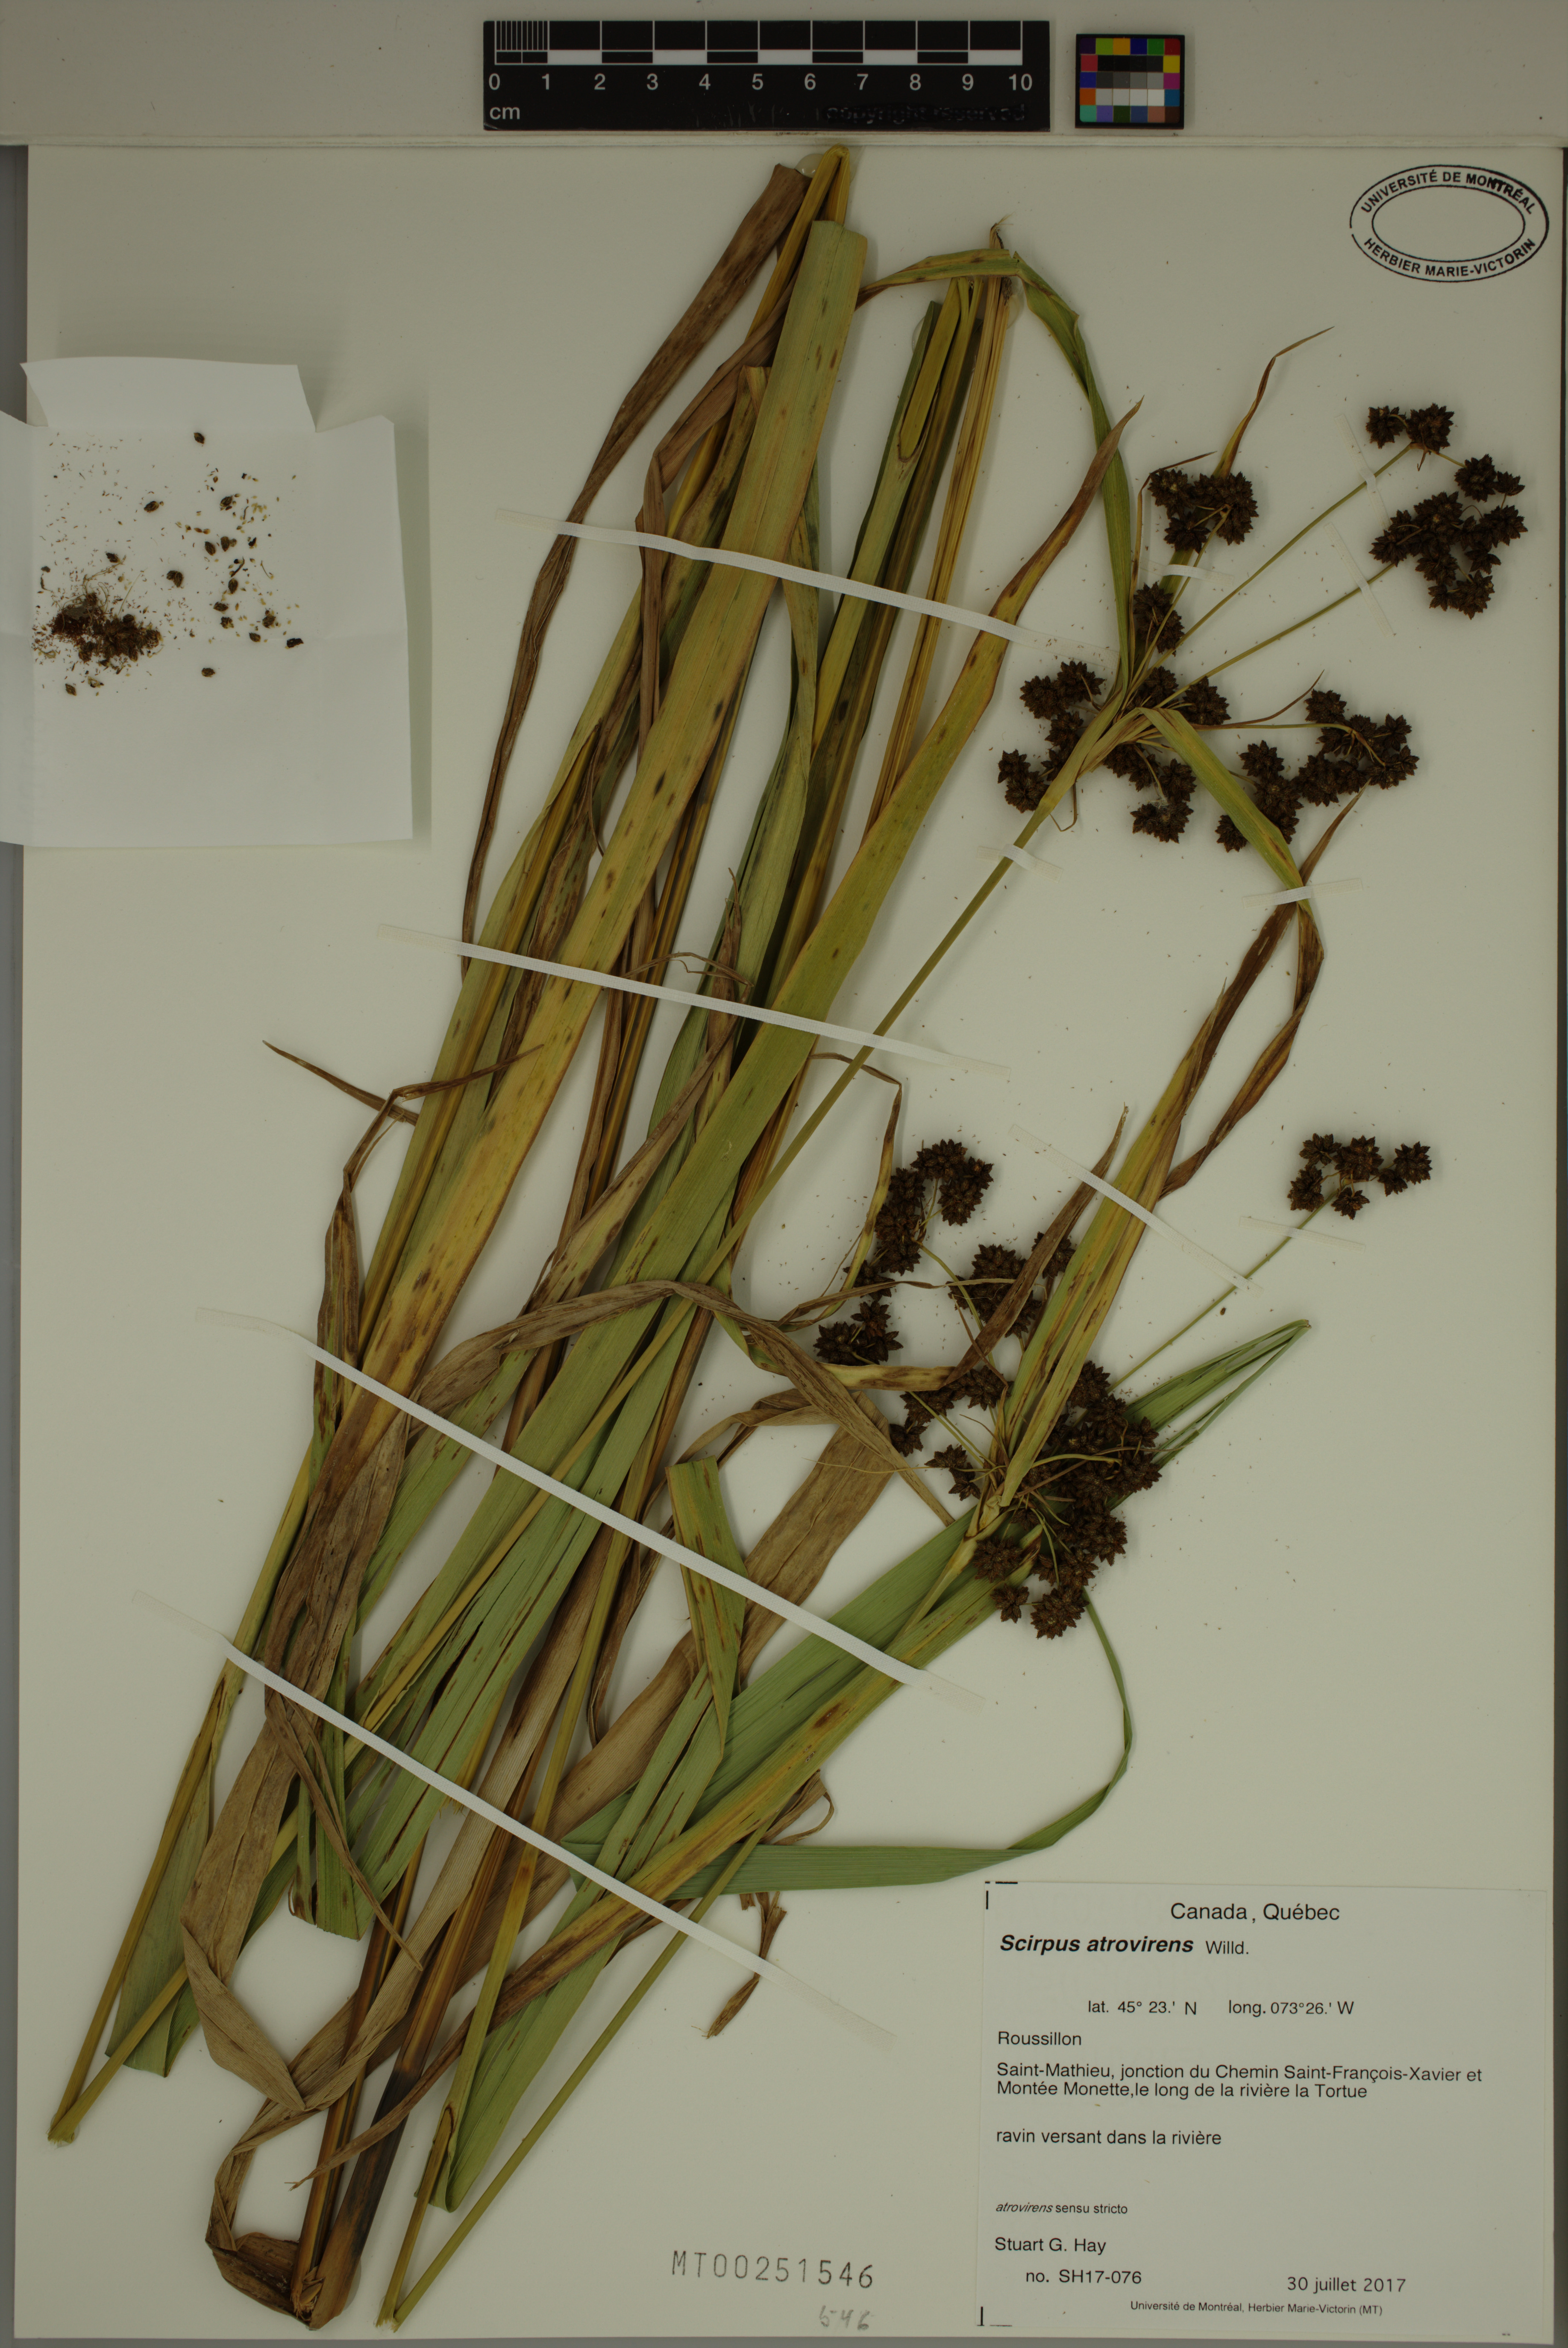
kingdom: Plantae
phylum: Tracheophyta
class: Liliopsida
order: Poales
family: Cyperaceae
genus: Scirpus
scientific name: Scirpus atrovirens
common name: Black bulrush
